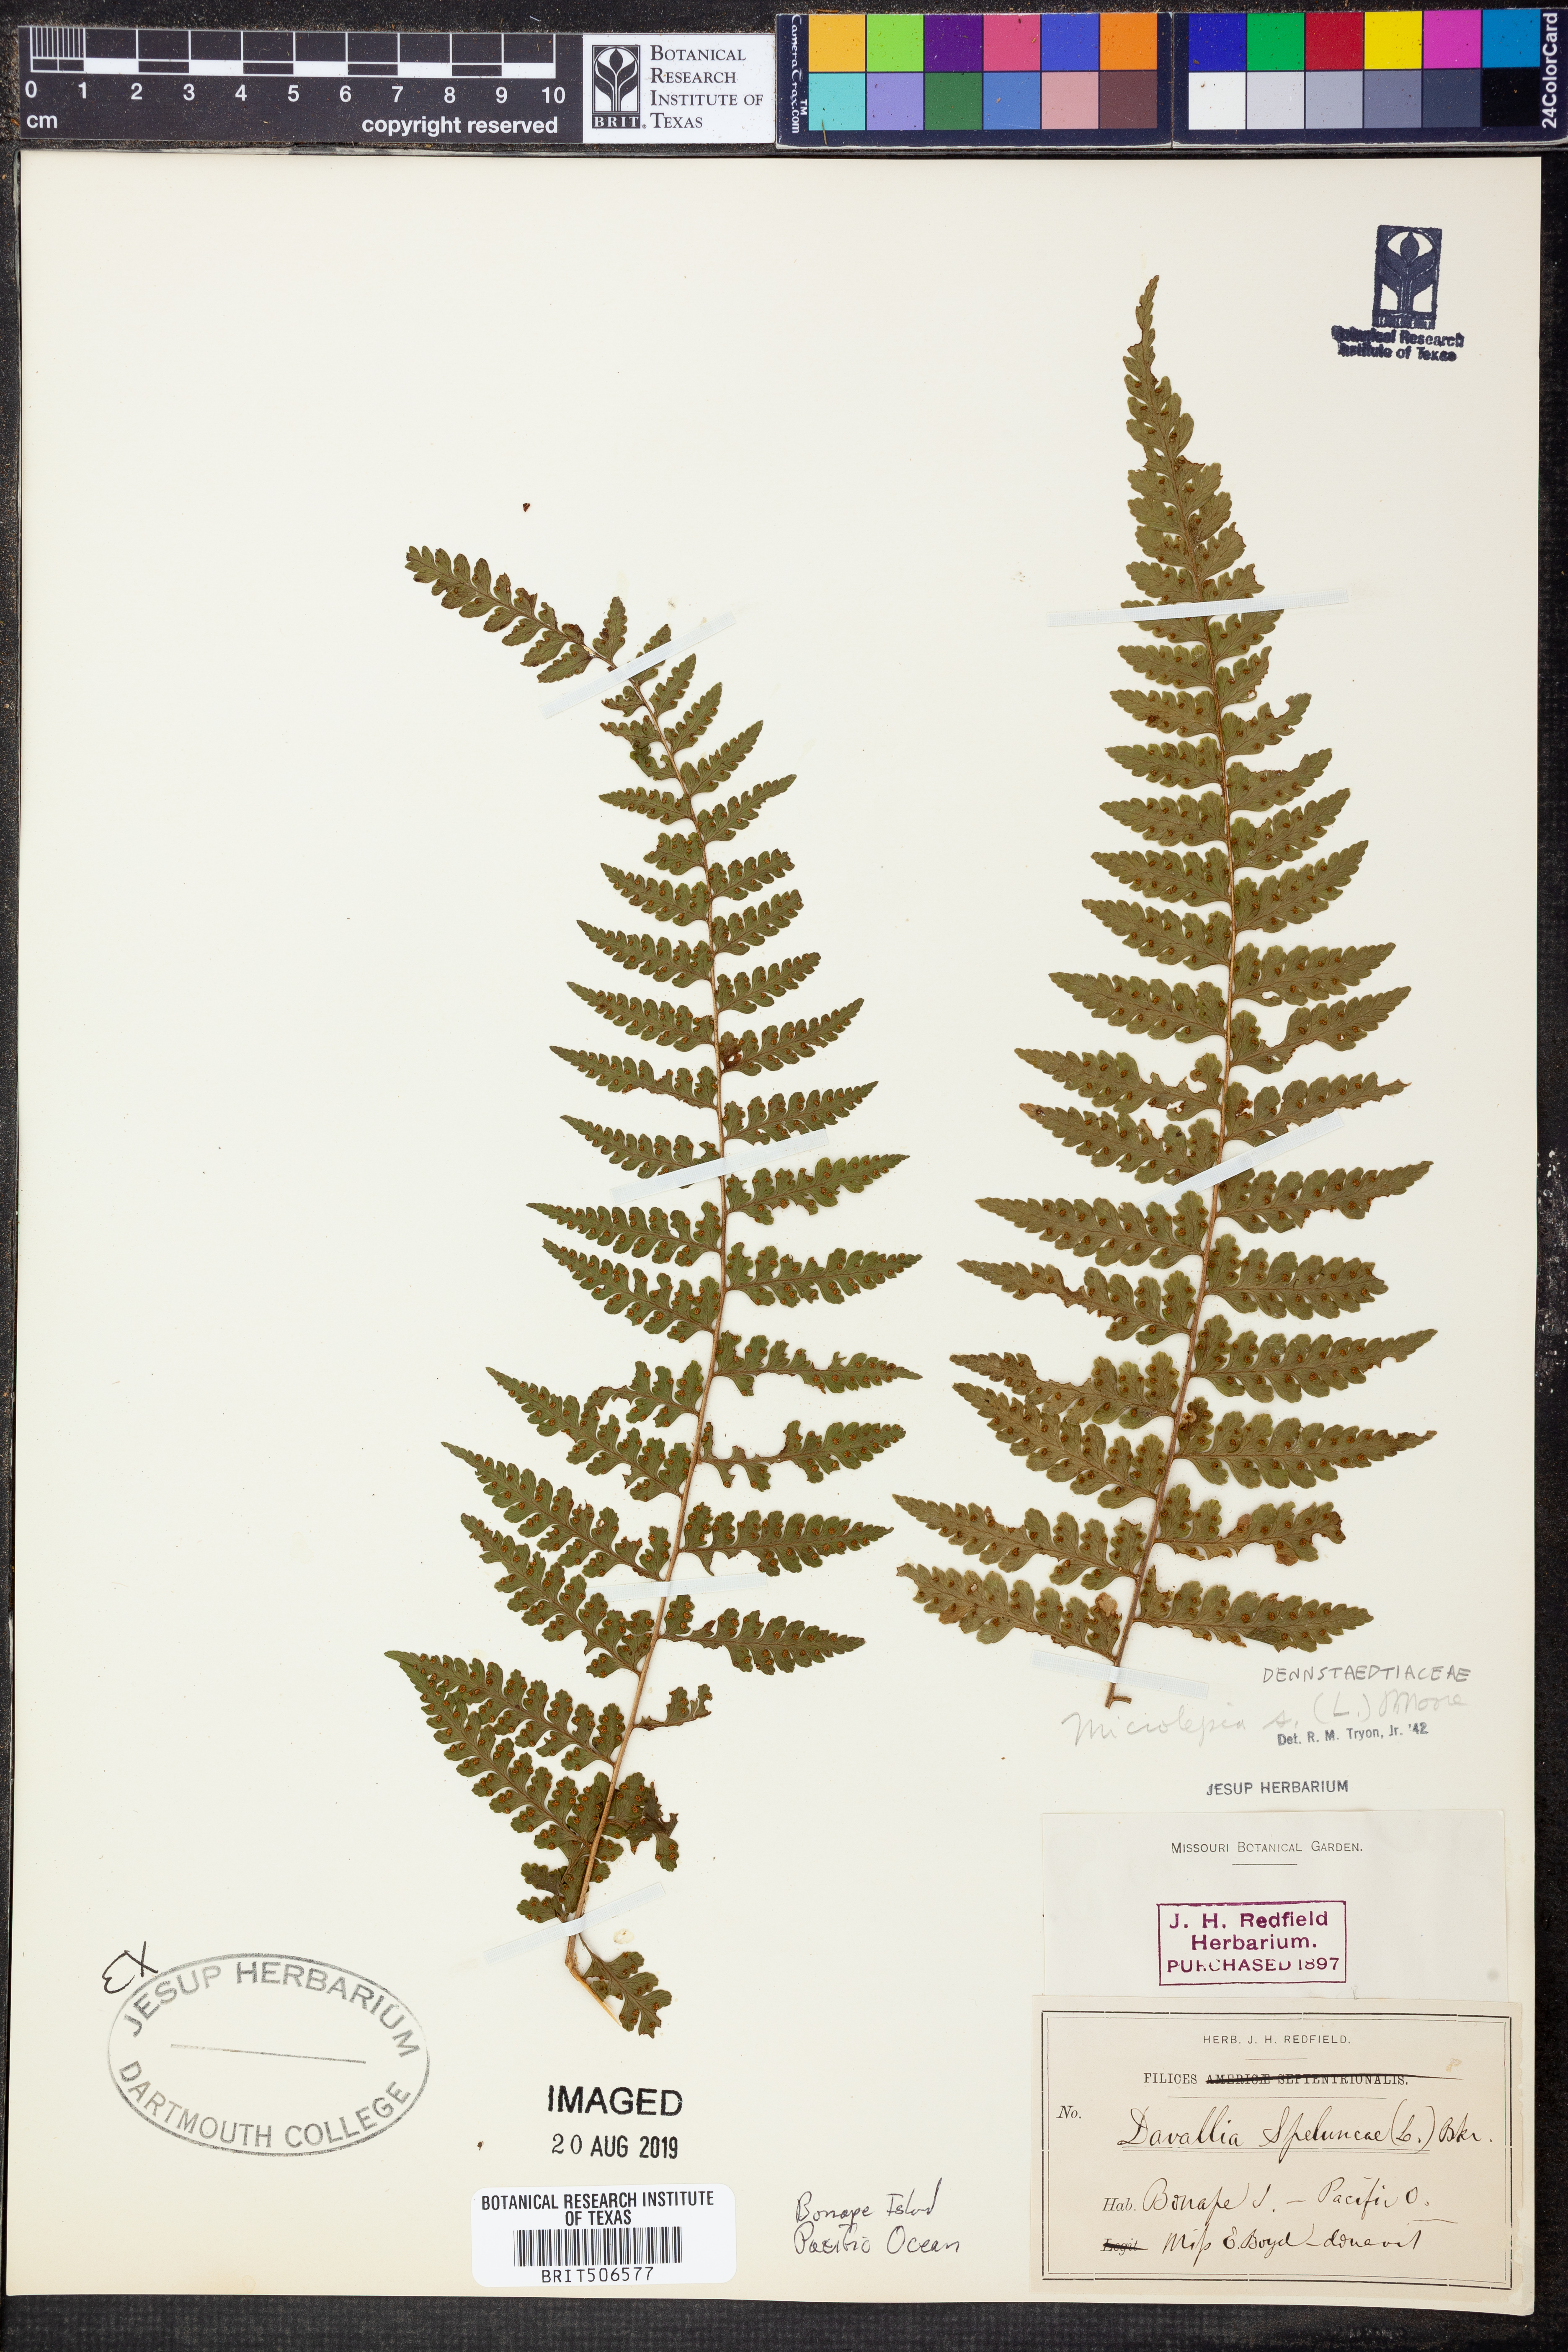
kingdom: Plantae
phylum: Tracheophyta
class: Polypodiopsida
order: Polypodiales
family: Dennstaedtiaceae
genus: Microlepia
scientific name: Microlepia speluncae
